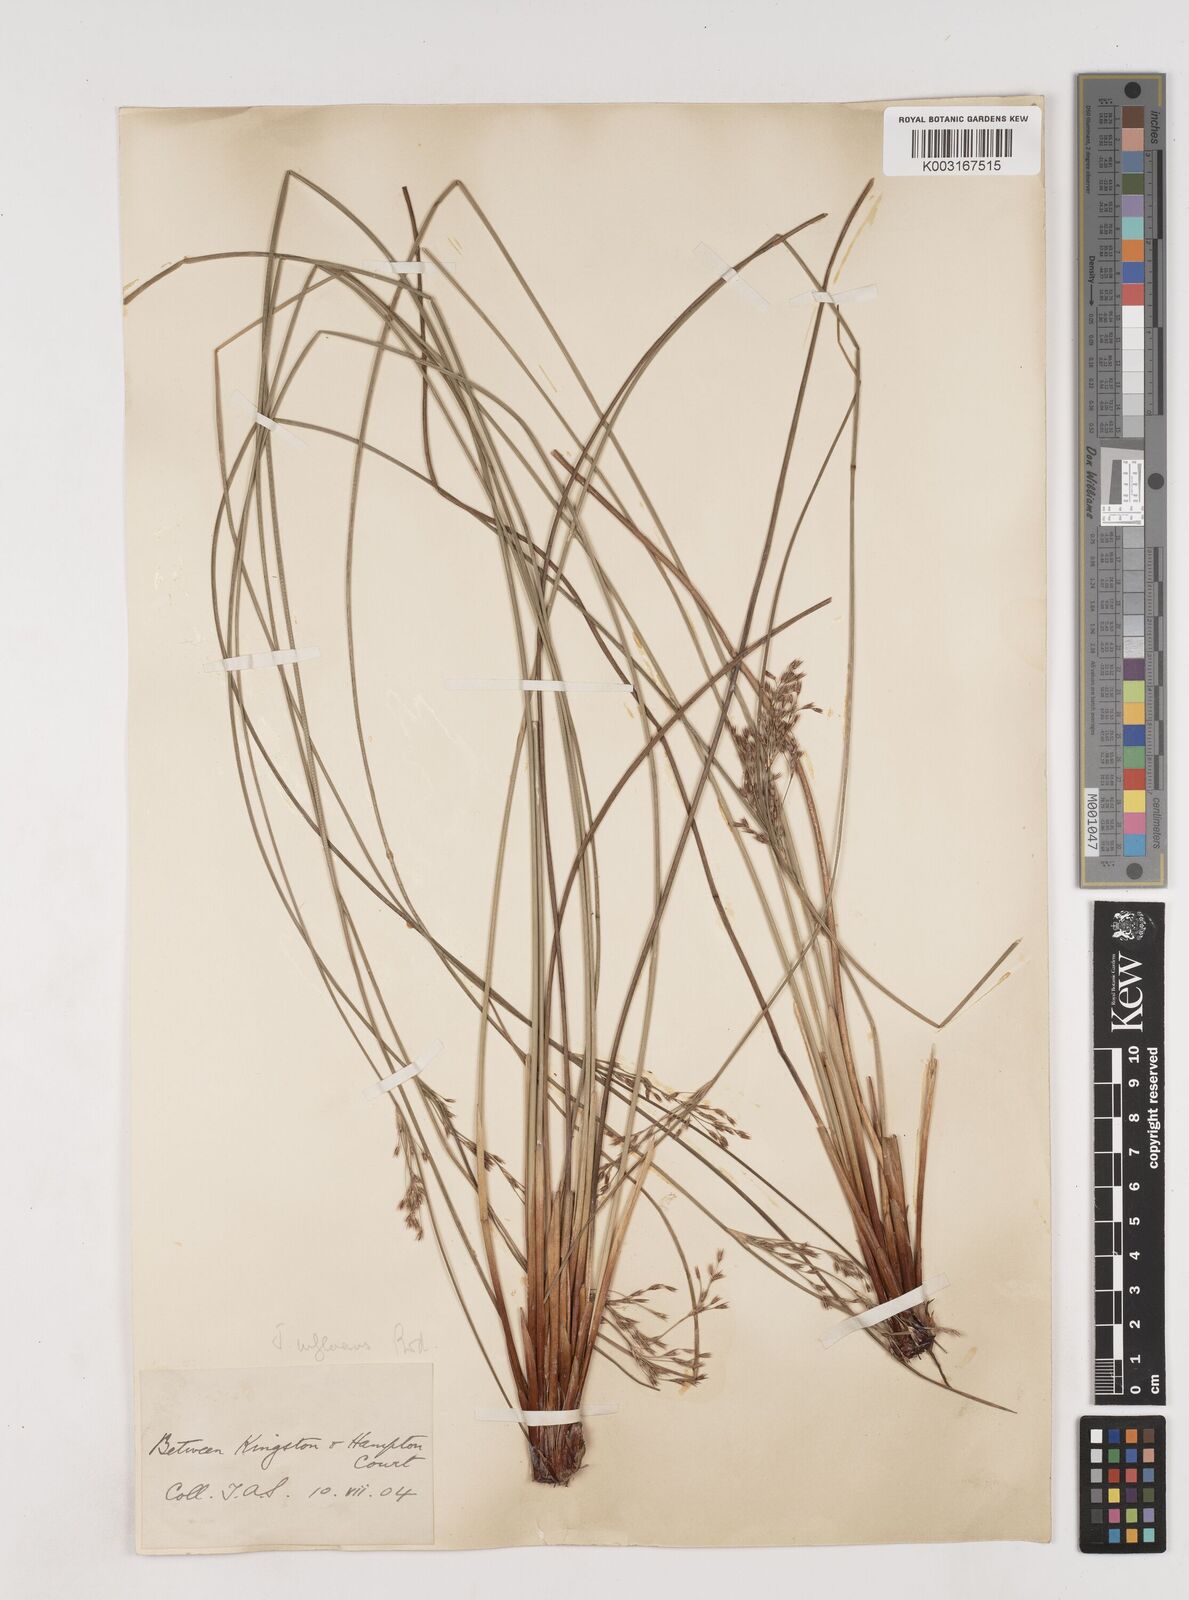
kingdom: Plantae
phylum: Tracheophyta
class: Liliopsida
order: Poales
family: Juncaceae
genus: Juncus
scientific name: Juncus inflexus
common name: Hard rush
